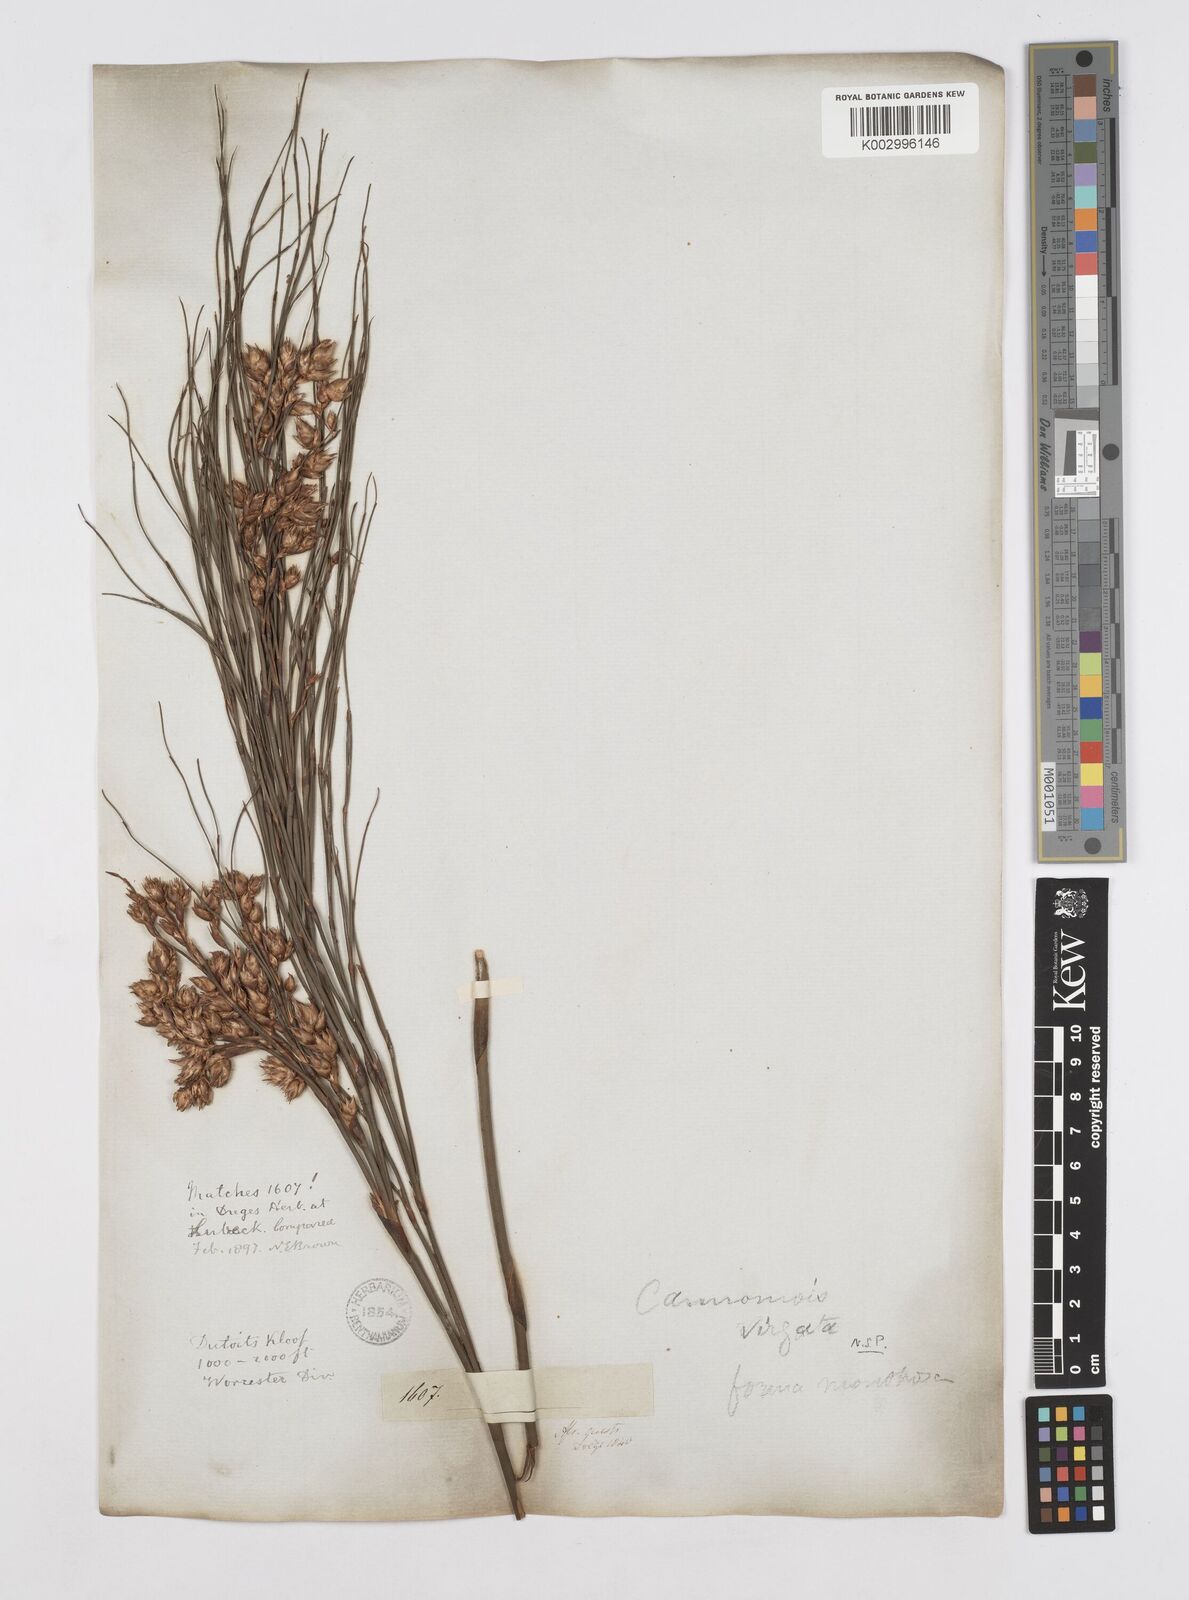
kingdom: Plantae
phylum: Tracheophyta
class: Liliopsida
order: Poales
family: Restionaceae
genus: Cannomois
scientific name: Cannomois virgata
